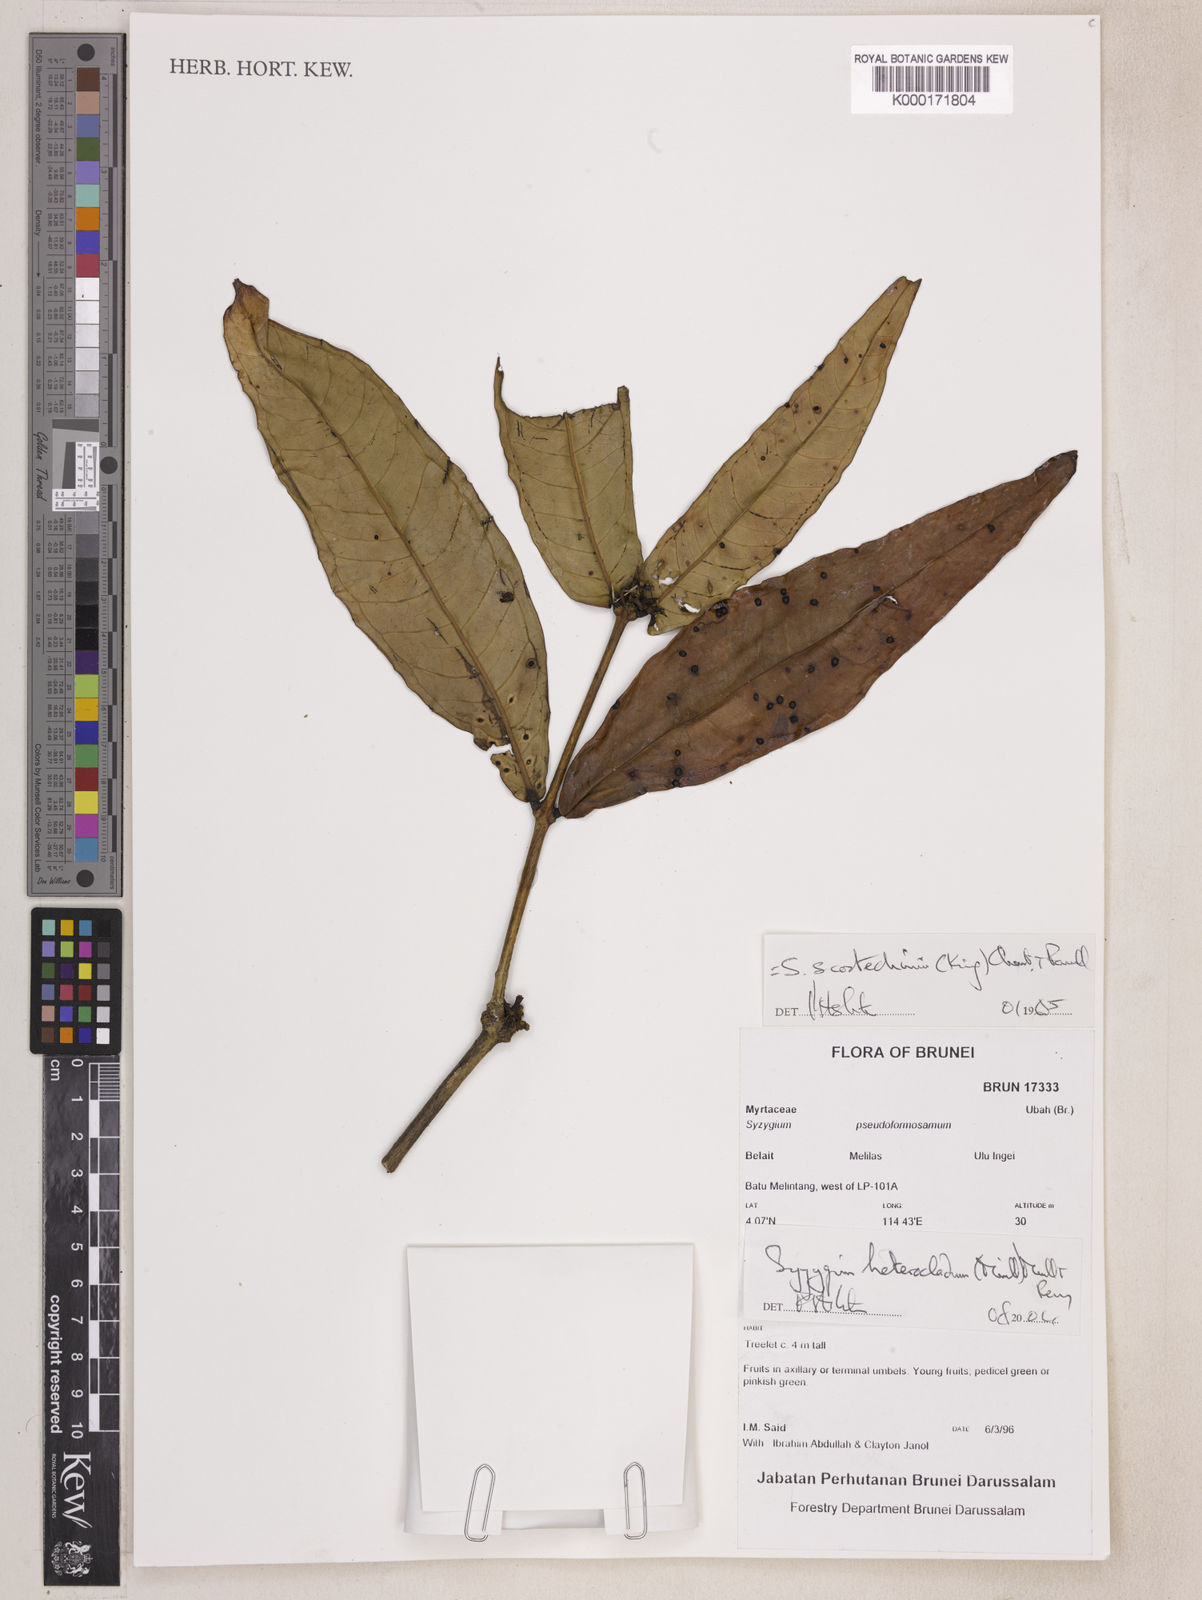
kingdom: Plantae
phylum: Tracheophyta
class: Magnoliopsida
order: Myrtales
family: Myrtaceae
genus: Syzygium
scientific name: Syzygium scortechinii
